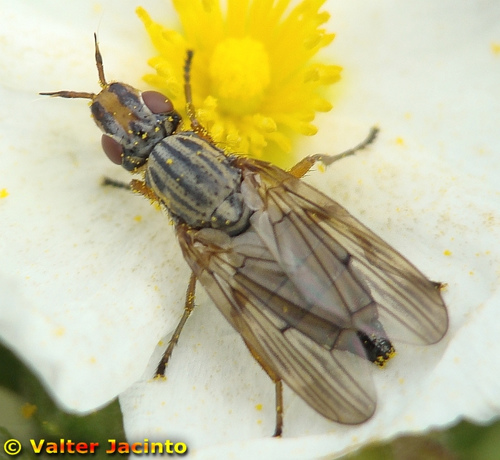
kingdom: Animalia
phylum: Arthropoda
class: Insecta
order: Diptera
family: Ulidiidae
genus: Dorycera
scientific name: Dorycera aquatica
